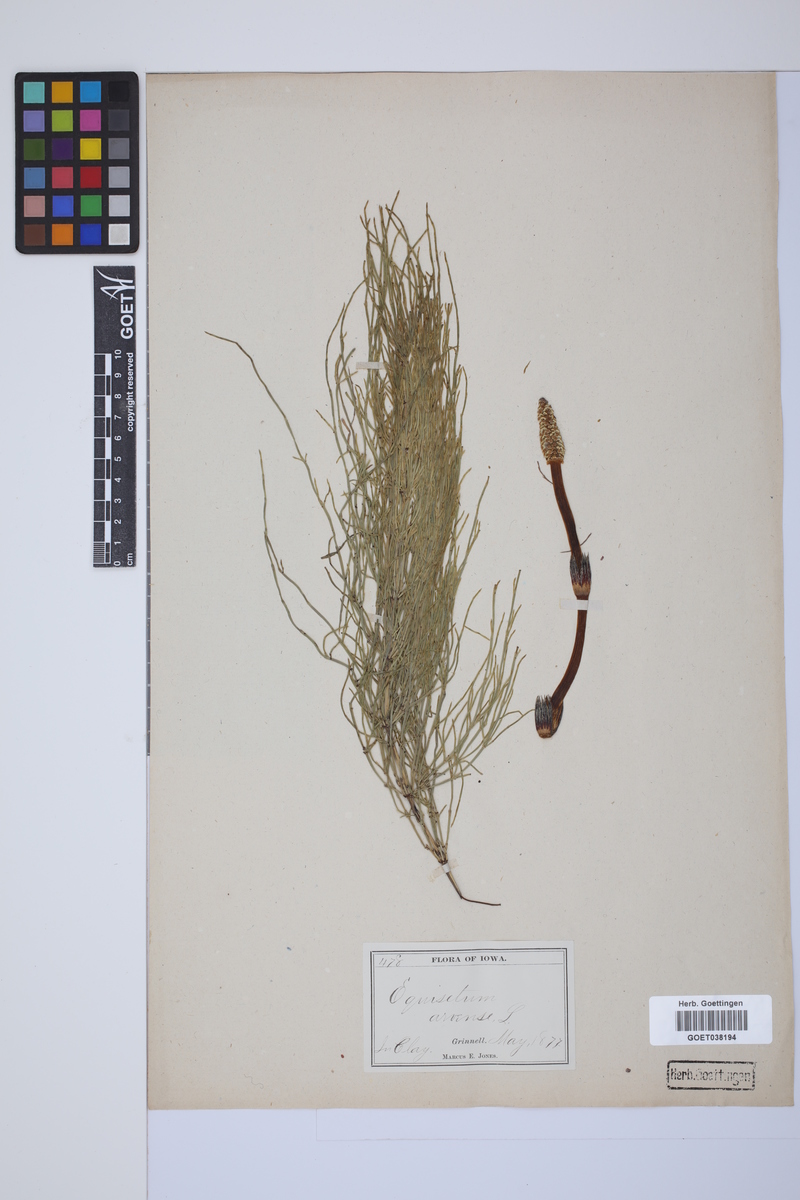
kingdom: Plantae
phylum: Tracheophyta
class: Polypodiopsida
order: Equisetales
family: Equisetaceae
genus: Equisetum
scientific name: Equisetum arvense
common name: Field horsetail
